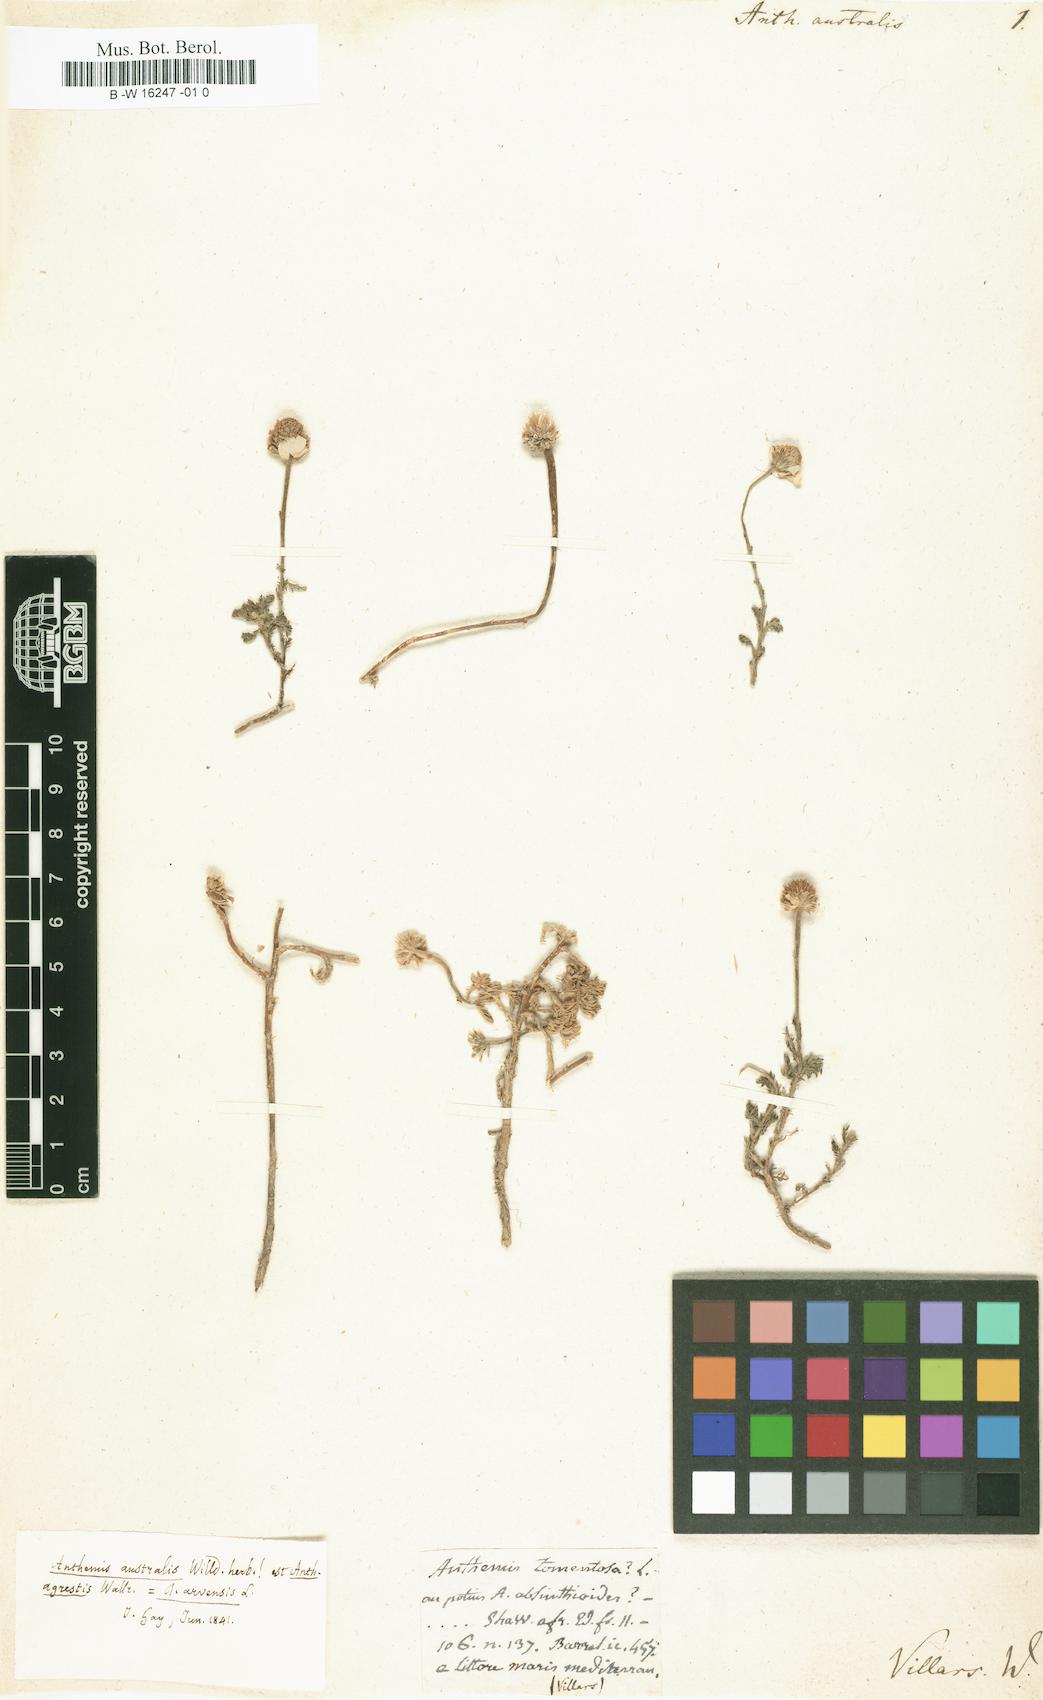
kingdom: Plantae
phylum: Tracheophyta
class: Magnoliopsida
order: Asterales
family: Asteraceae
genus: Anacyclus
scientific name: Anacyclus clavatus
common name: Whitebuttons
